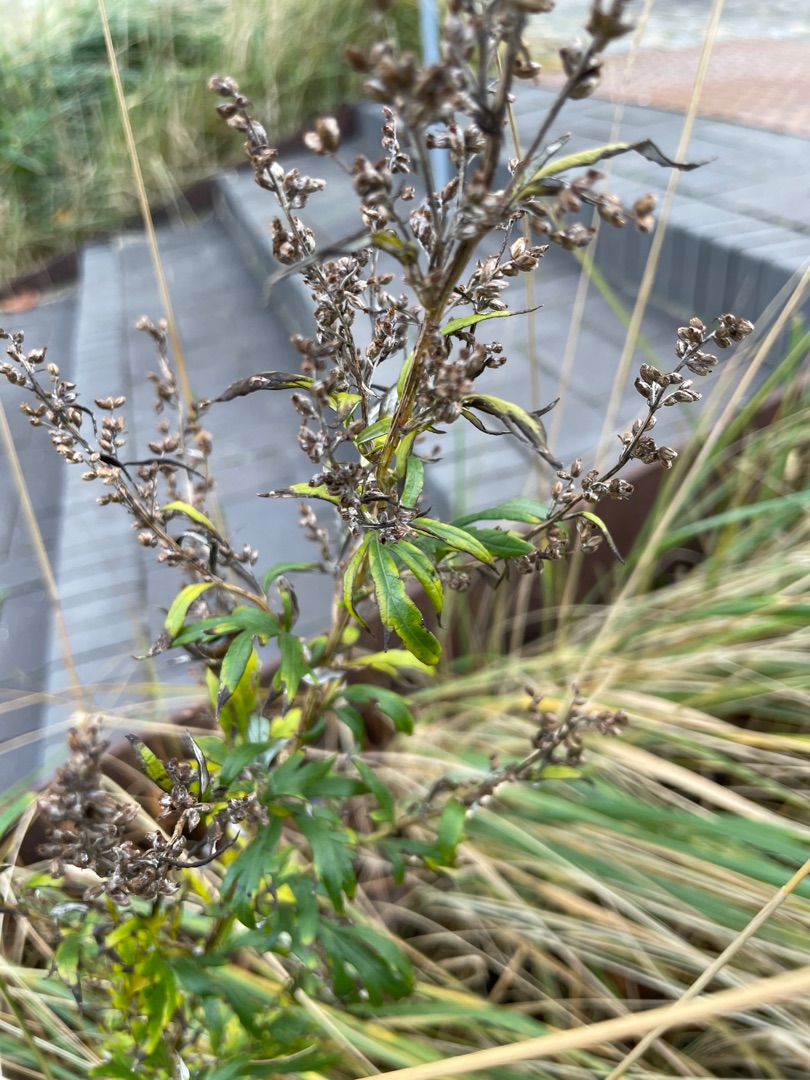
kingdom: Plantae
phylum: Tracheophyta
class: Magnoliopsida
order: Asterales
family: Asteraceae
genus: Artemisia
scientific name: Artemisia vulgaris
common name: Grå-bynke
